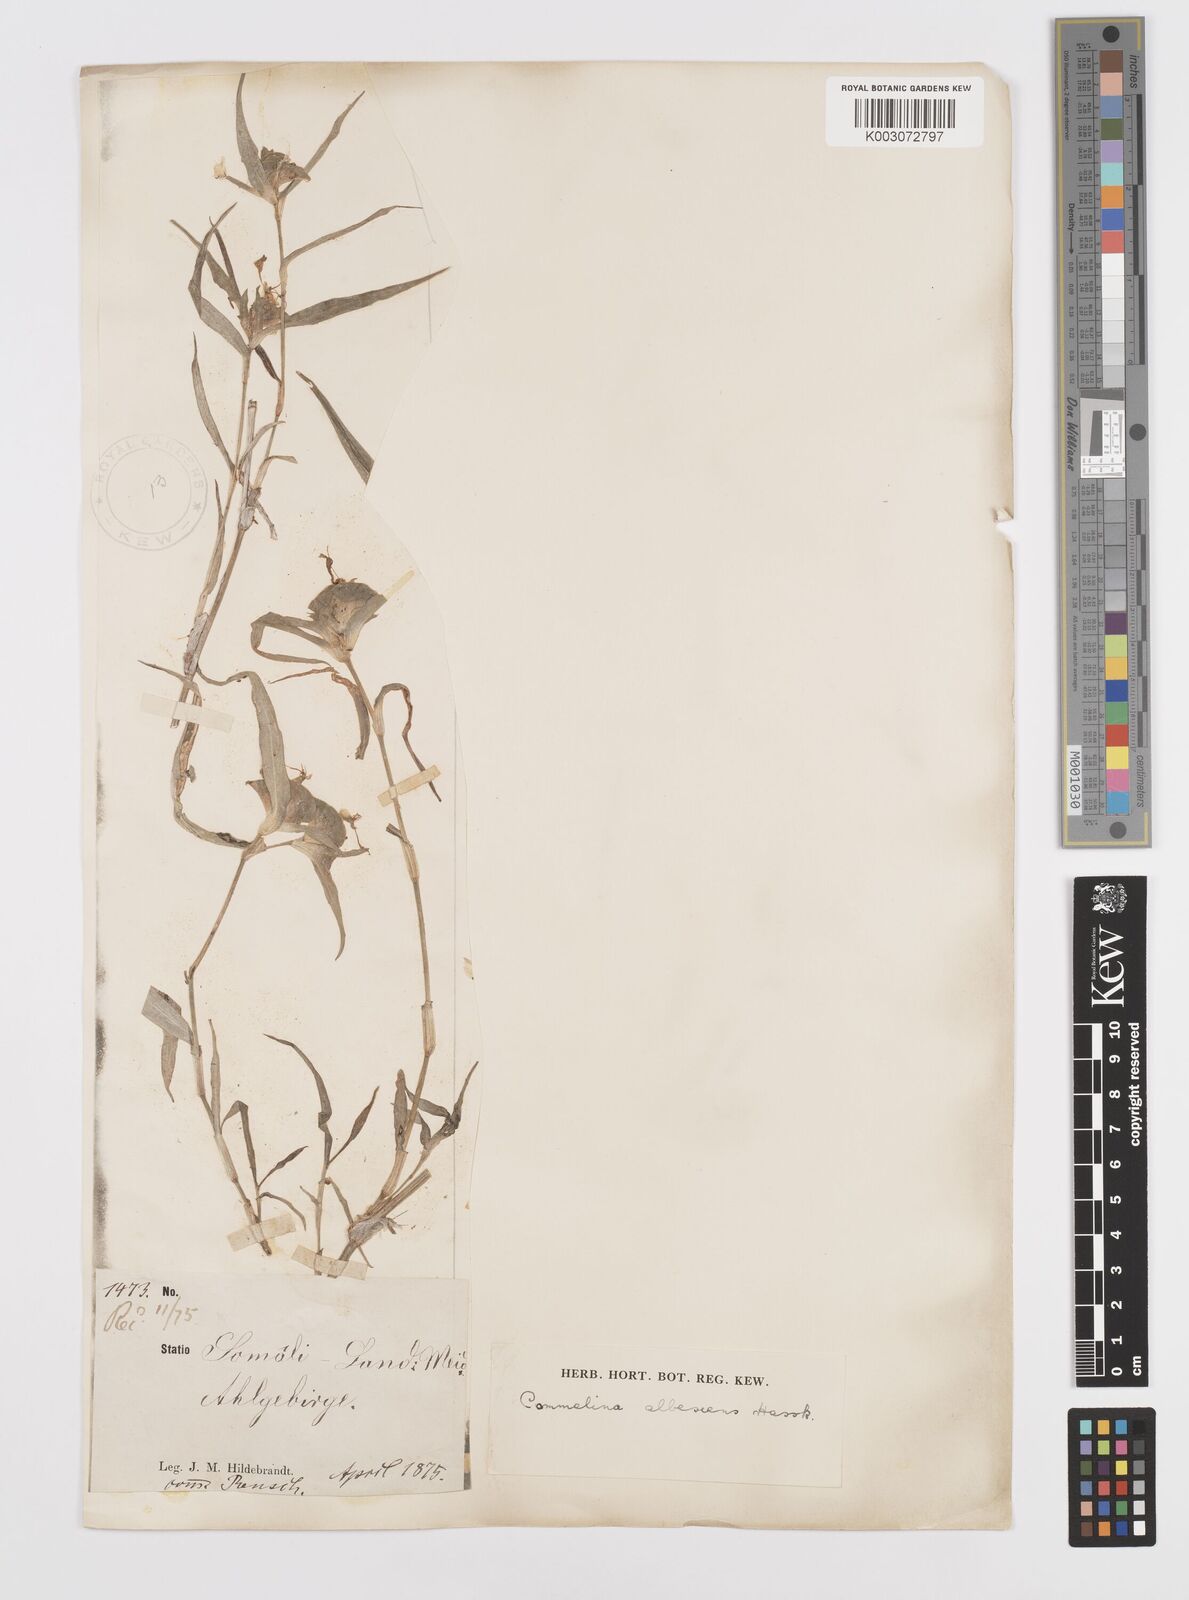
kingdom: Plantae
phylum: Tracheophyta
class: Liliopsida
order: Commelinales
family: Commelinaceae
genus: Commelina
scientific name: Commelina albescens
